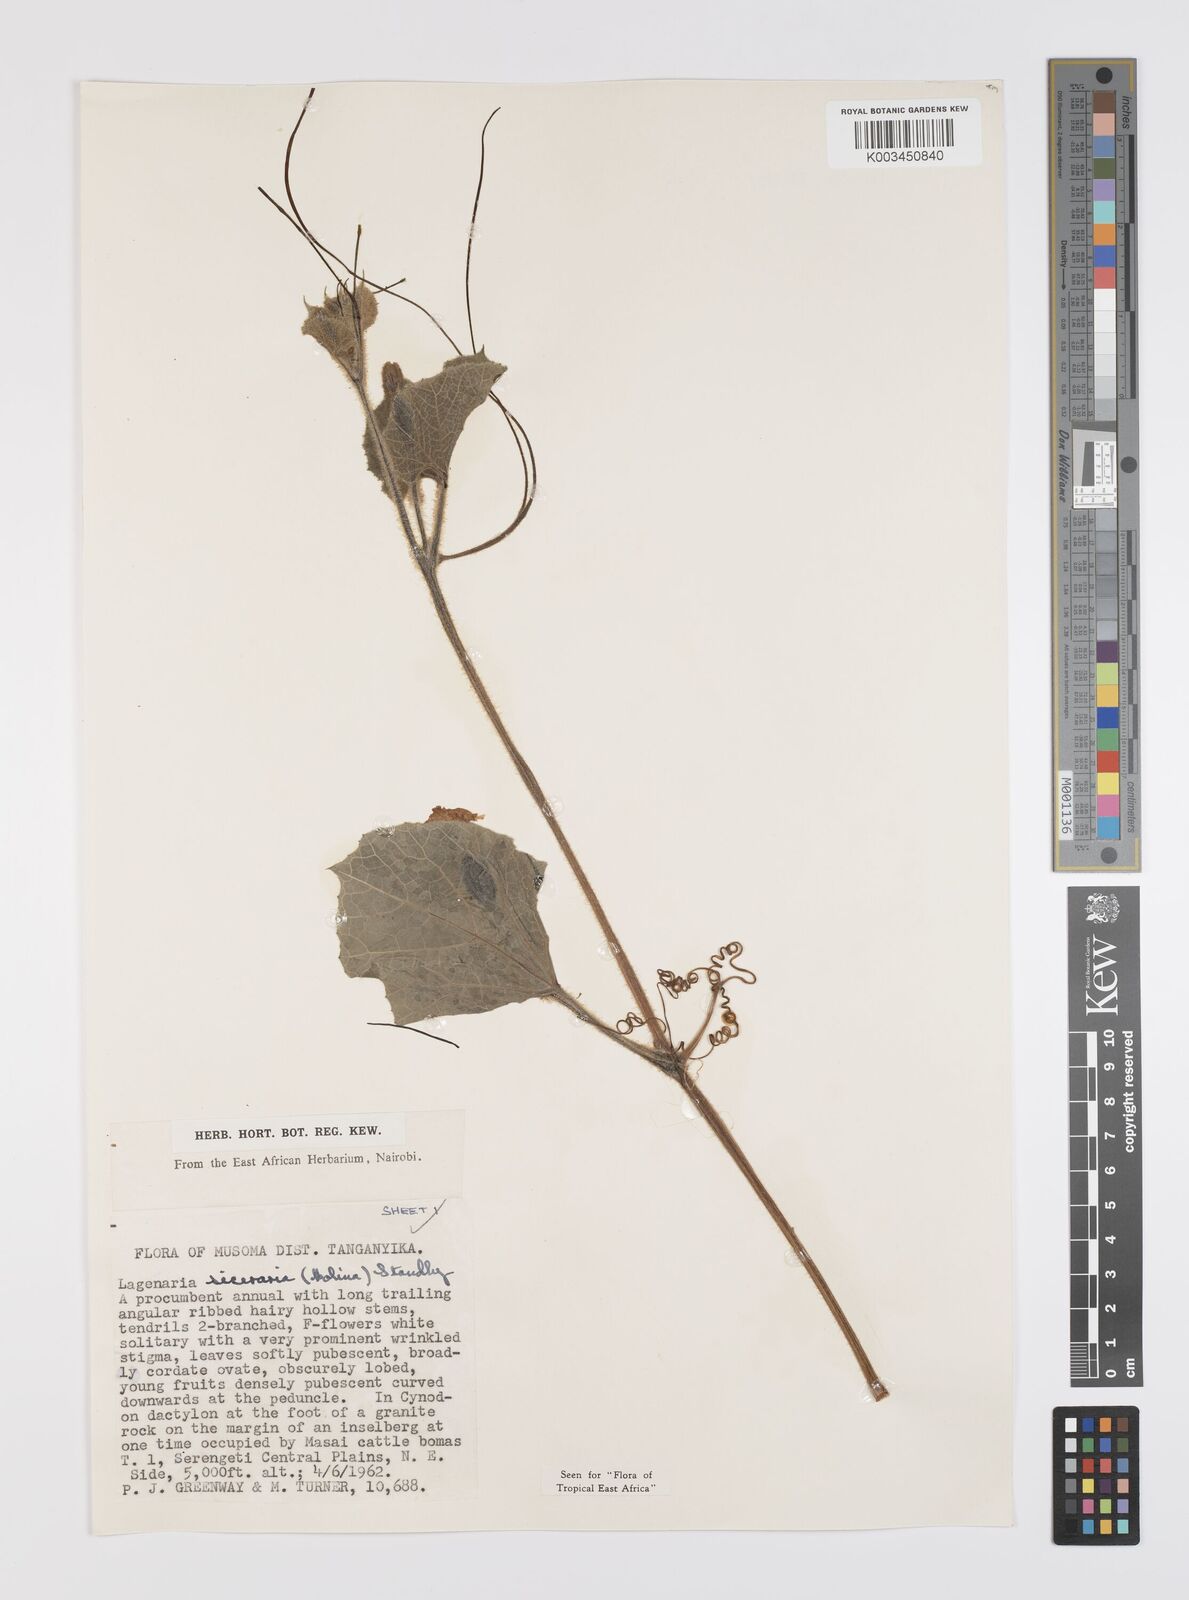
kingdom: Plantae
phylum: Tracheophyta
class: Magnoliopsida
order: Cucurbitales
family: Cucurbitaceae
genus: Lagenaria
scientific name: Lagenaria siceraria
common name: Bottle gourd
